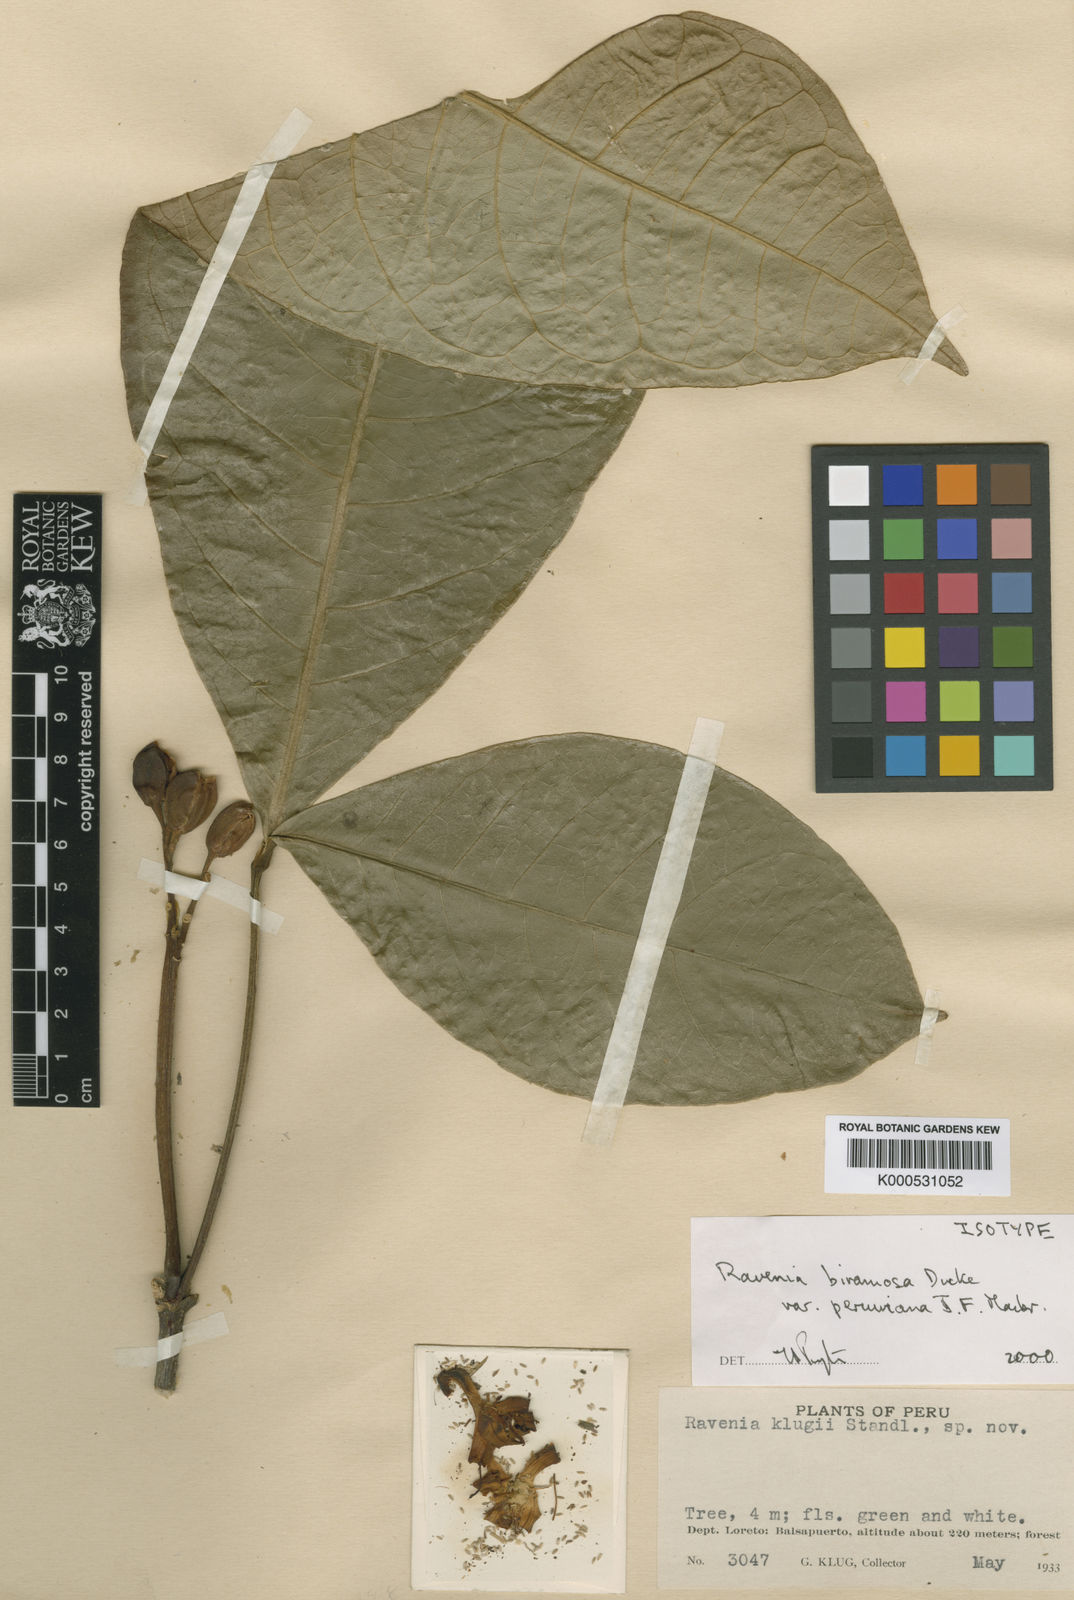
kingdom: Plantae
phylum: Tracheophyta
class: Magnoliopsida
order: Sapindales
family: Rutaceae
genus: Ravenia
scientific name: Ravenia
